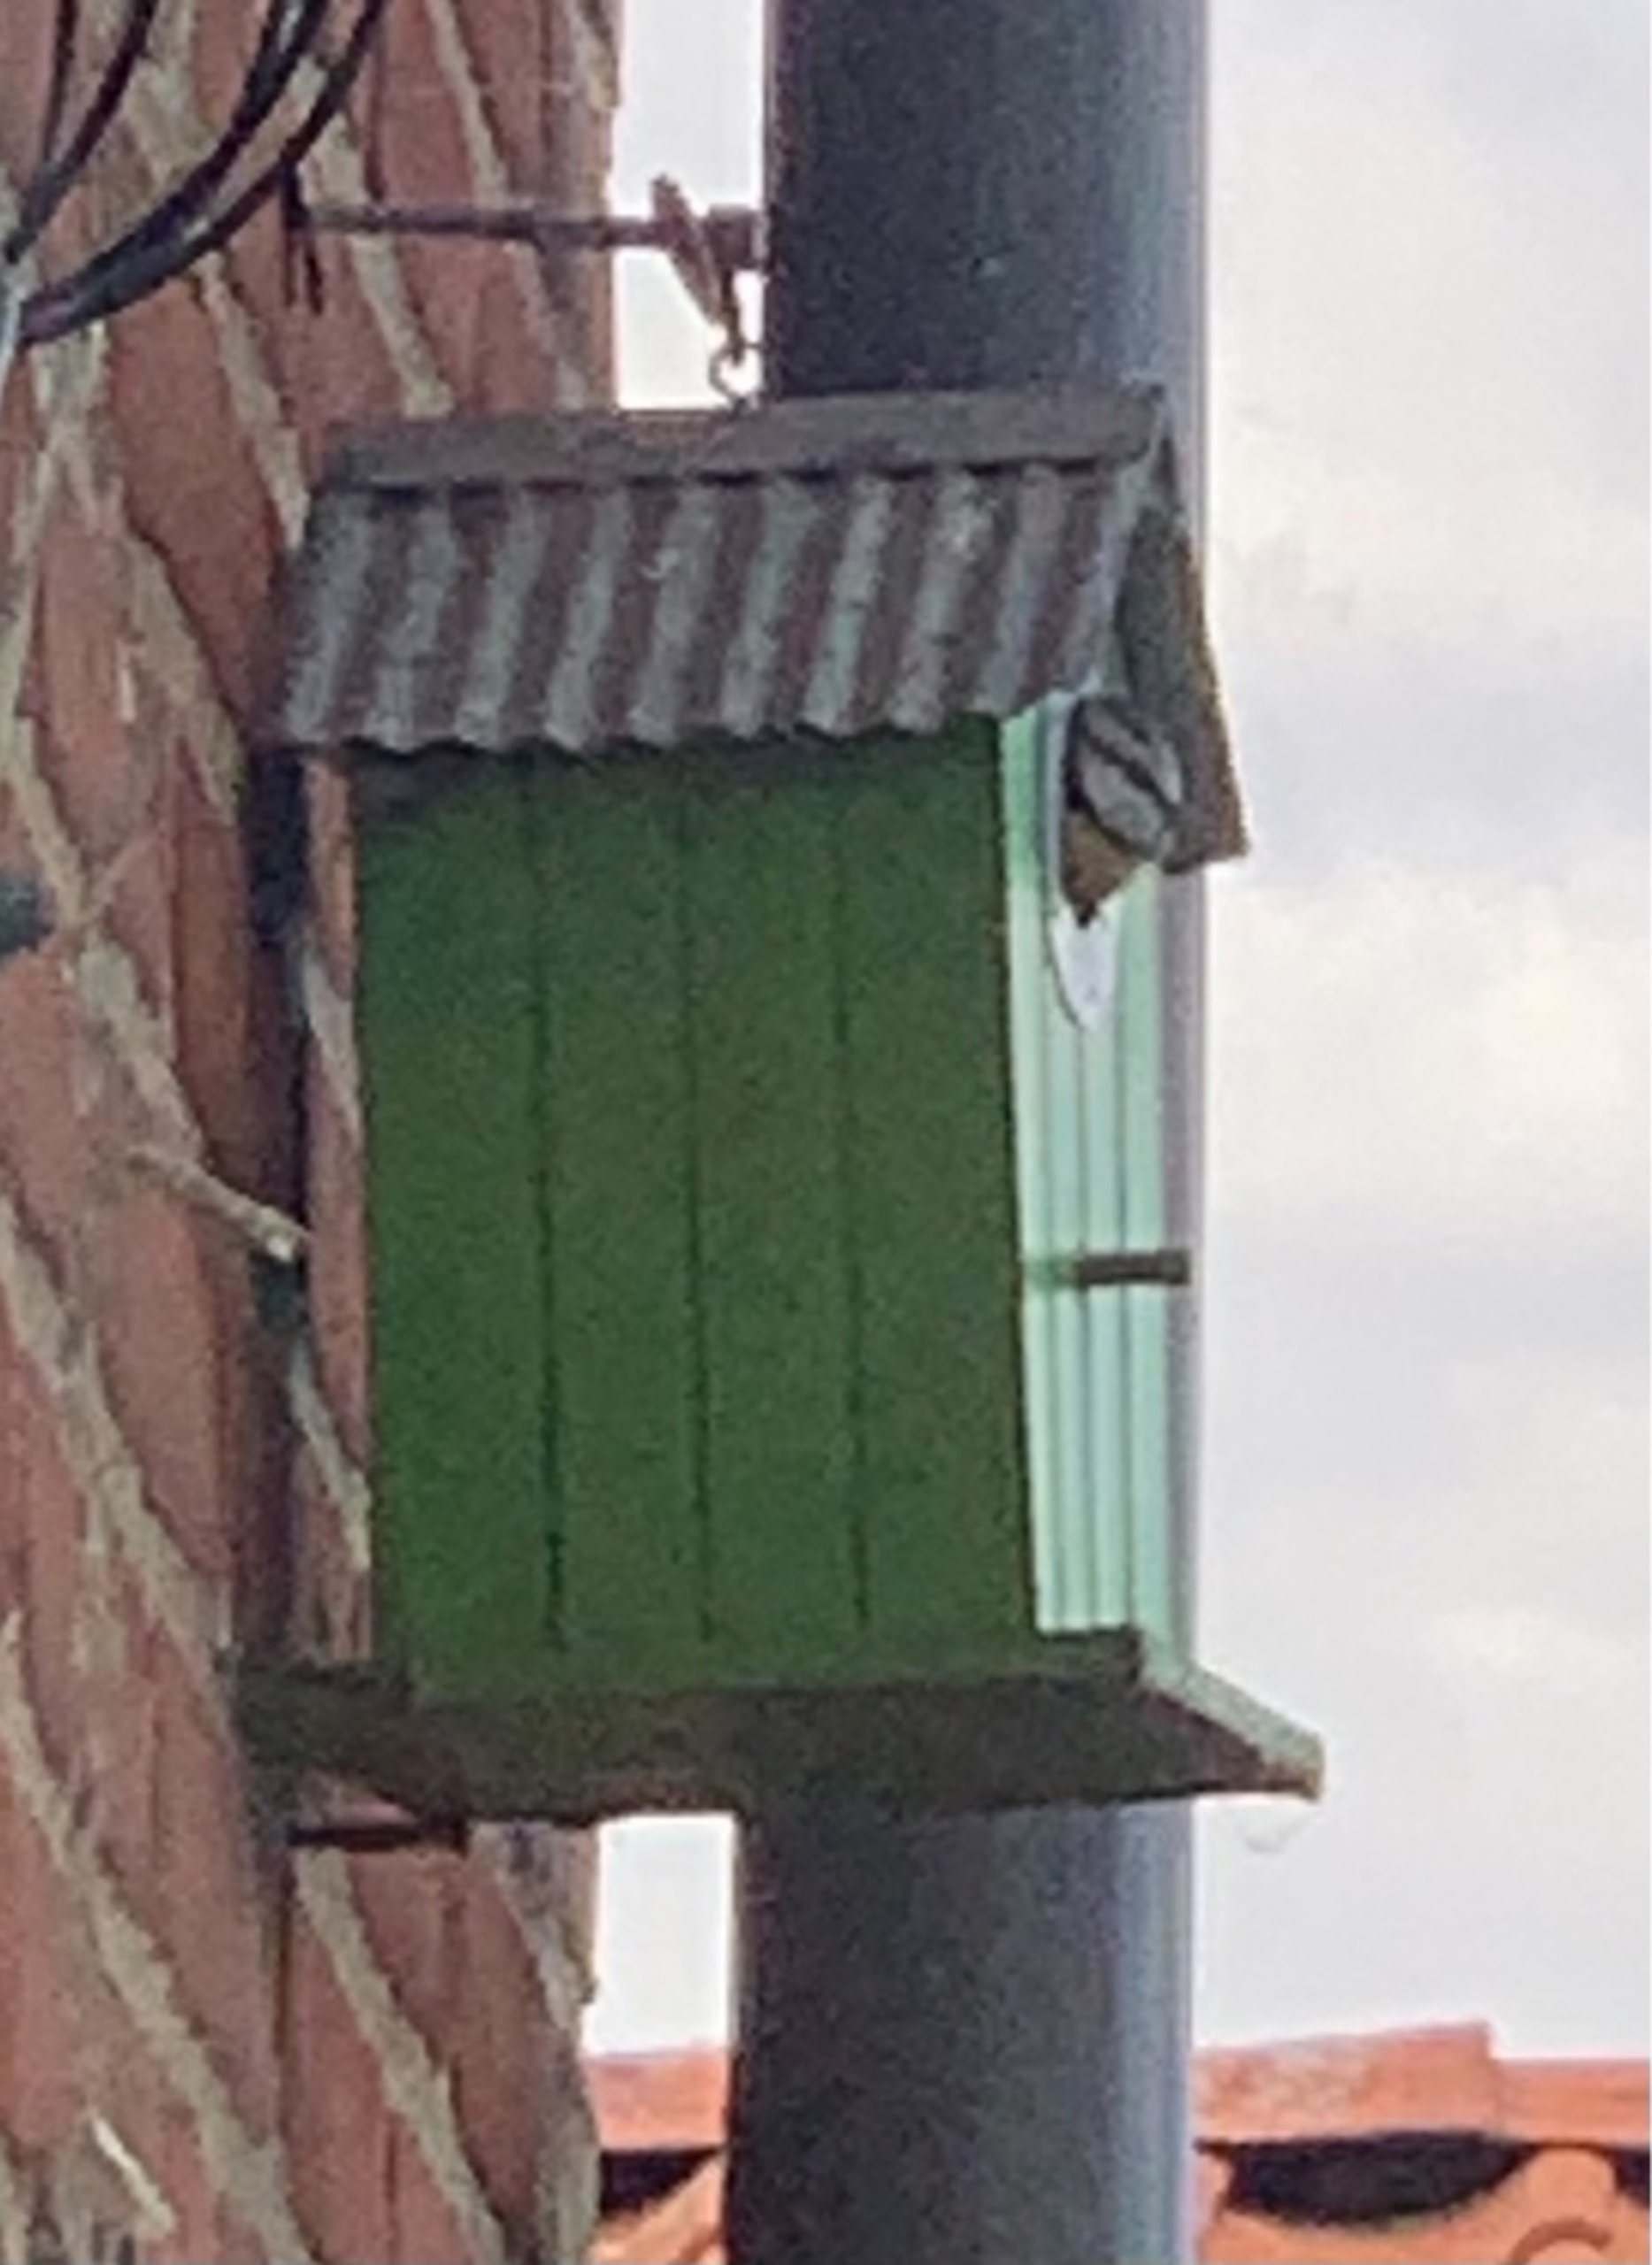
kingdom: Animalia
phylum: Chordata
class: Aves
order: Passeriformes
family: Paridae
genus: Cyanistes
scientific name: Cyanistes caeruleus
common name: Blåmejse
